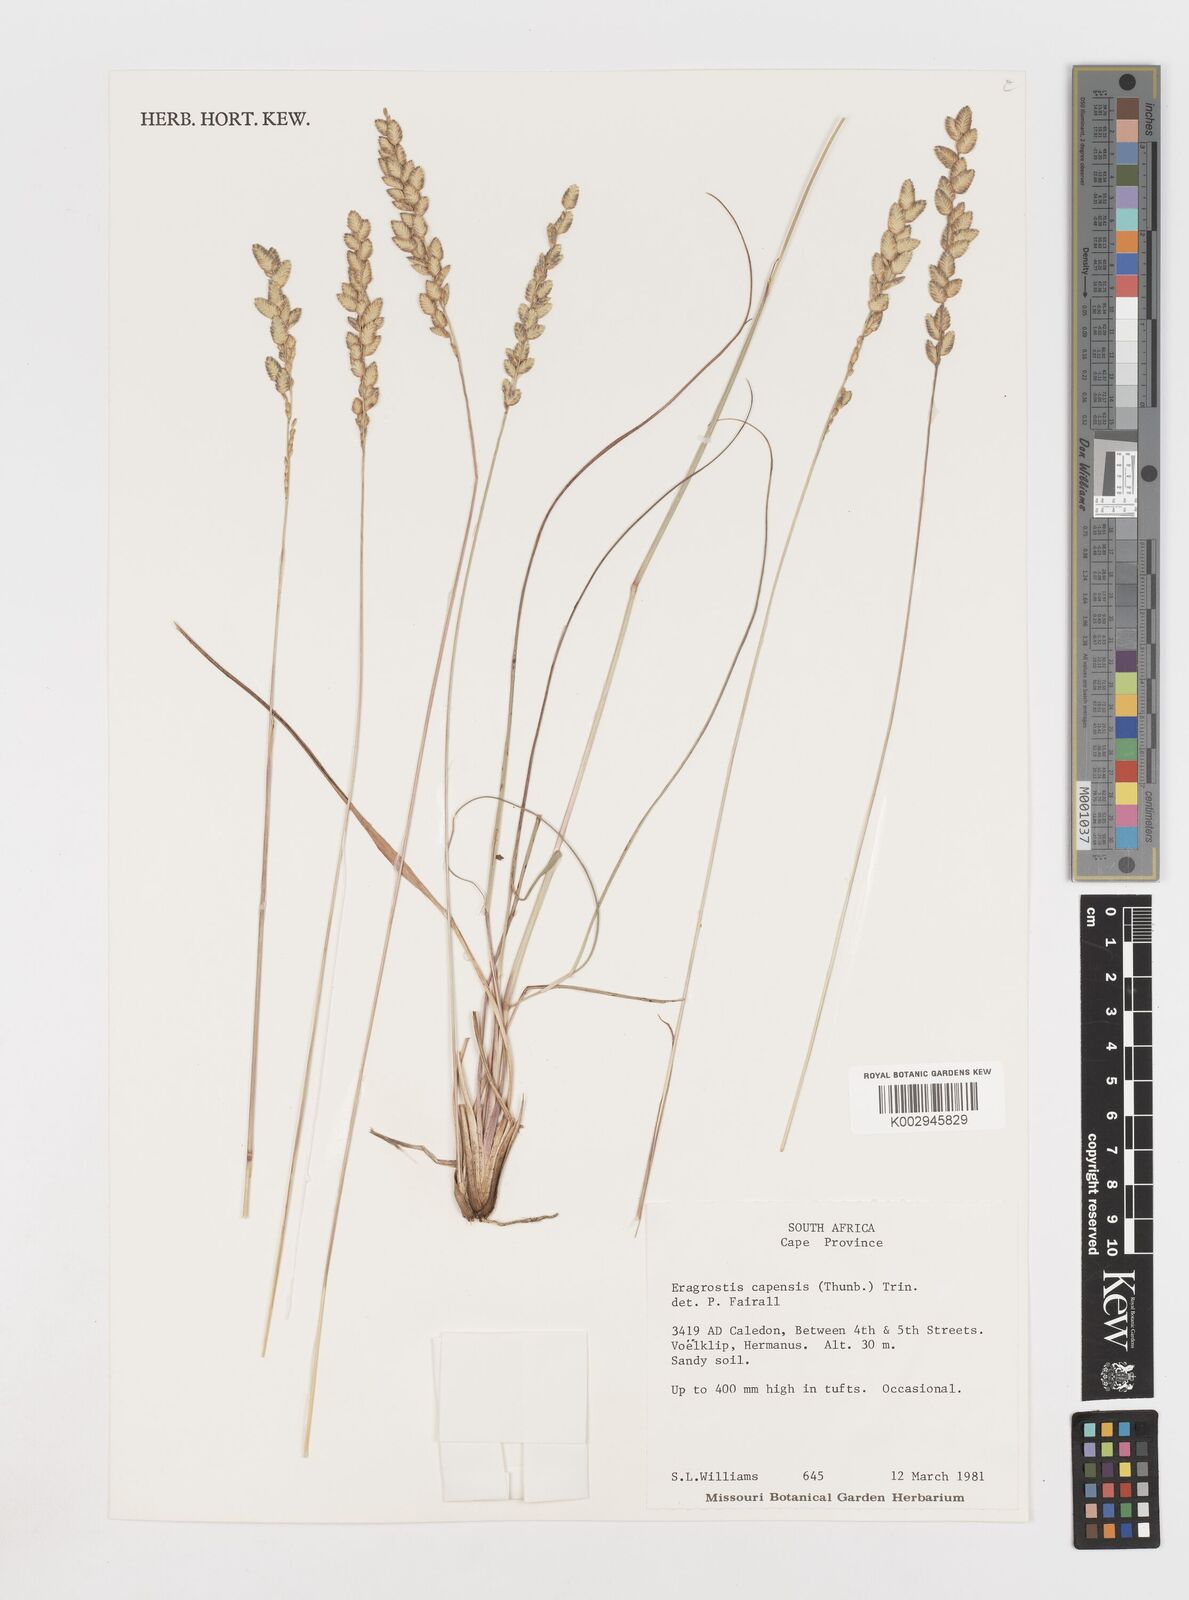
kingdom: Plantae
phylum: Tracheophyta
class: Liliopsida
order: Poales
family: Poaceae
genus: Eragrostis
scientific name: Eragrostis capensis
